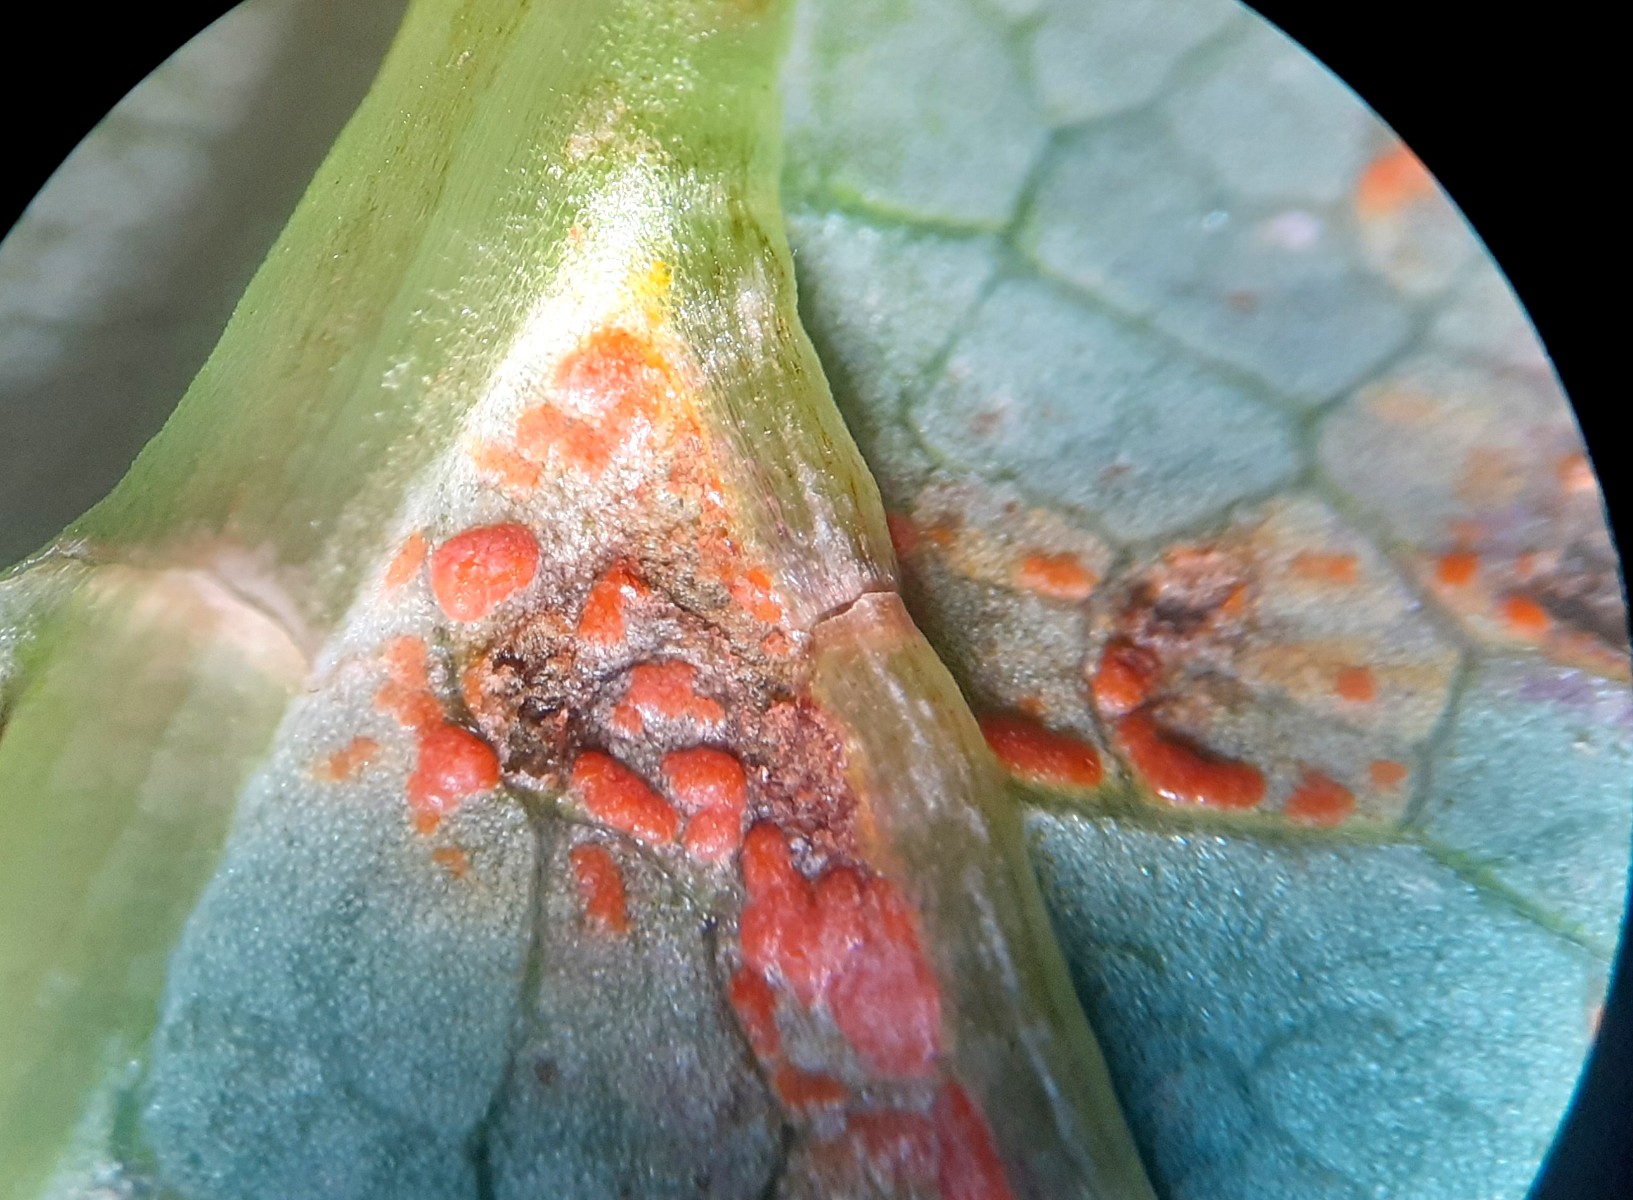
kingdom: Fungi
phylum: Basidiomycota
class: Pucciniomycetes
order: Pucciniales
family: Coleosporiaceae
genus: Coleosporium
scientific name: Coleosporium sonchi
